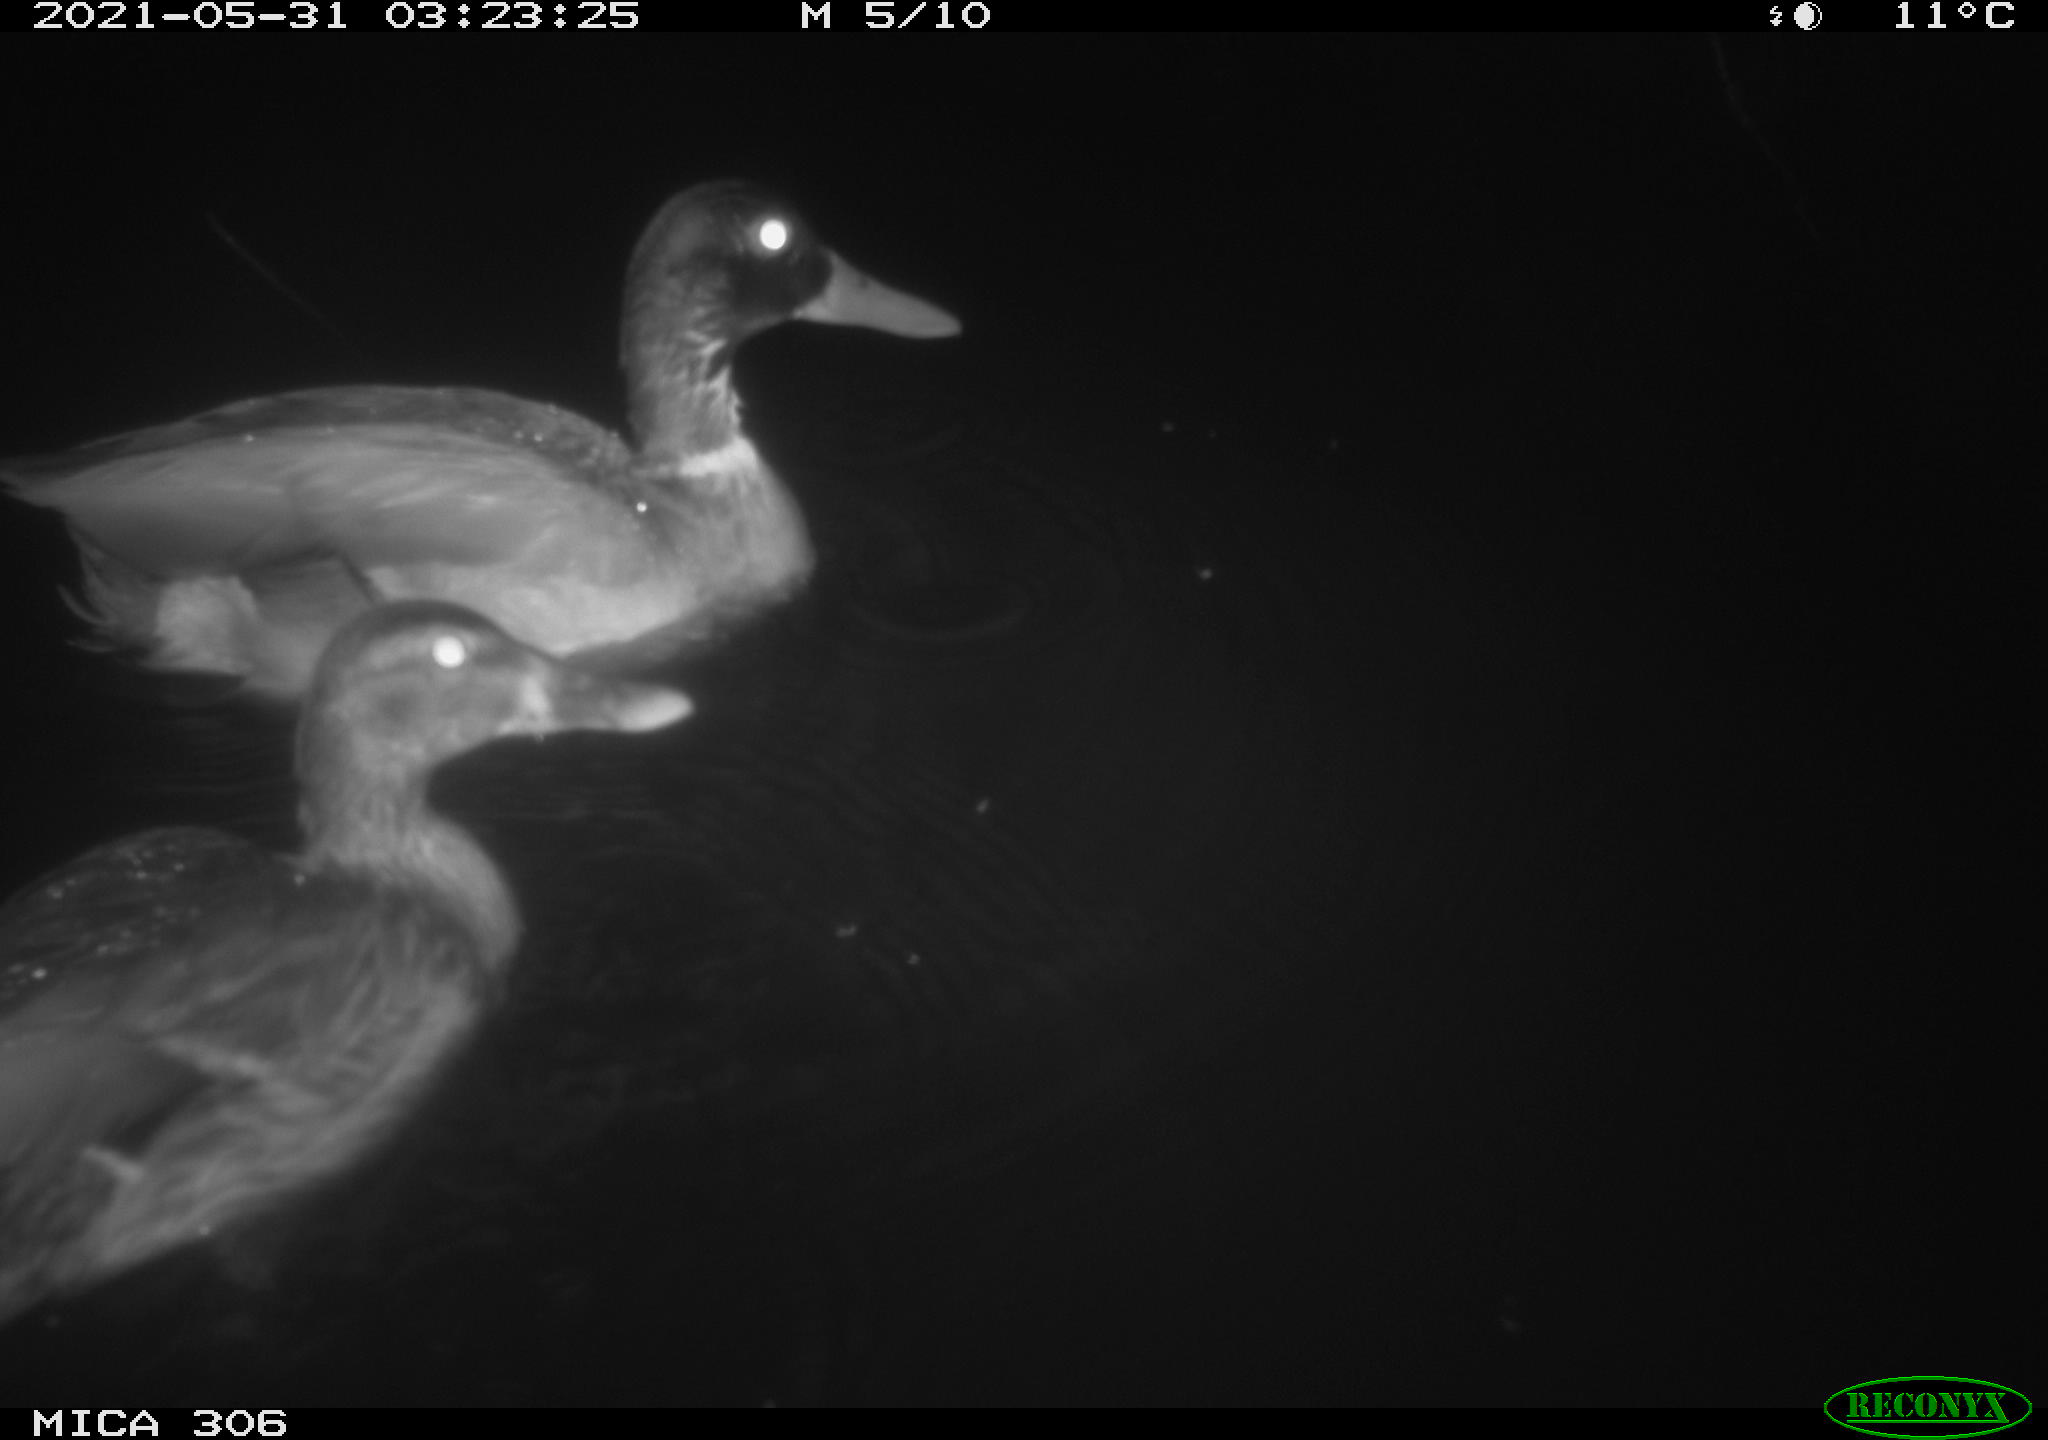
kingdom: Animalia
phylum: Chordata
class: Aves
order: Anseriformes
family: Anatidae
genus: Anas
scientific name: Anas platyrhynchos
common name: Mallard
